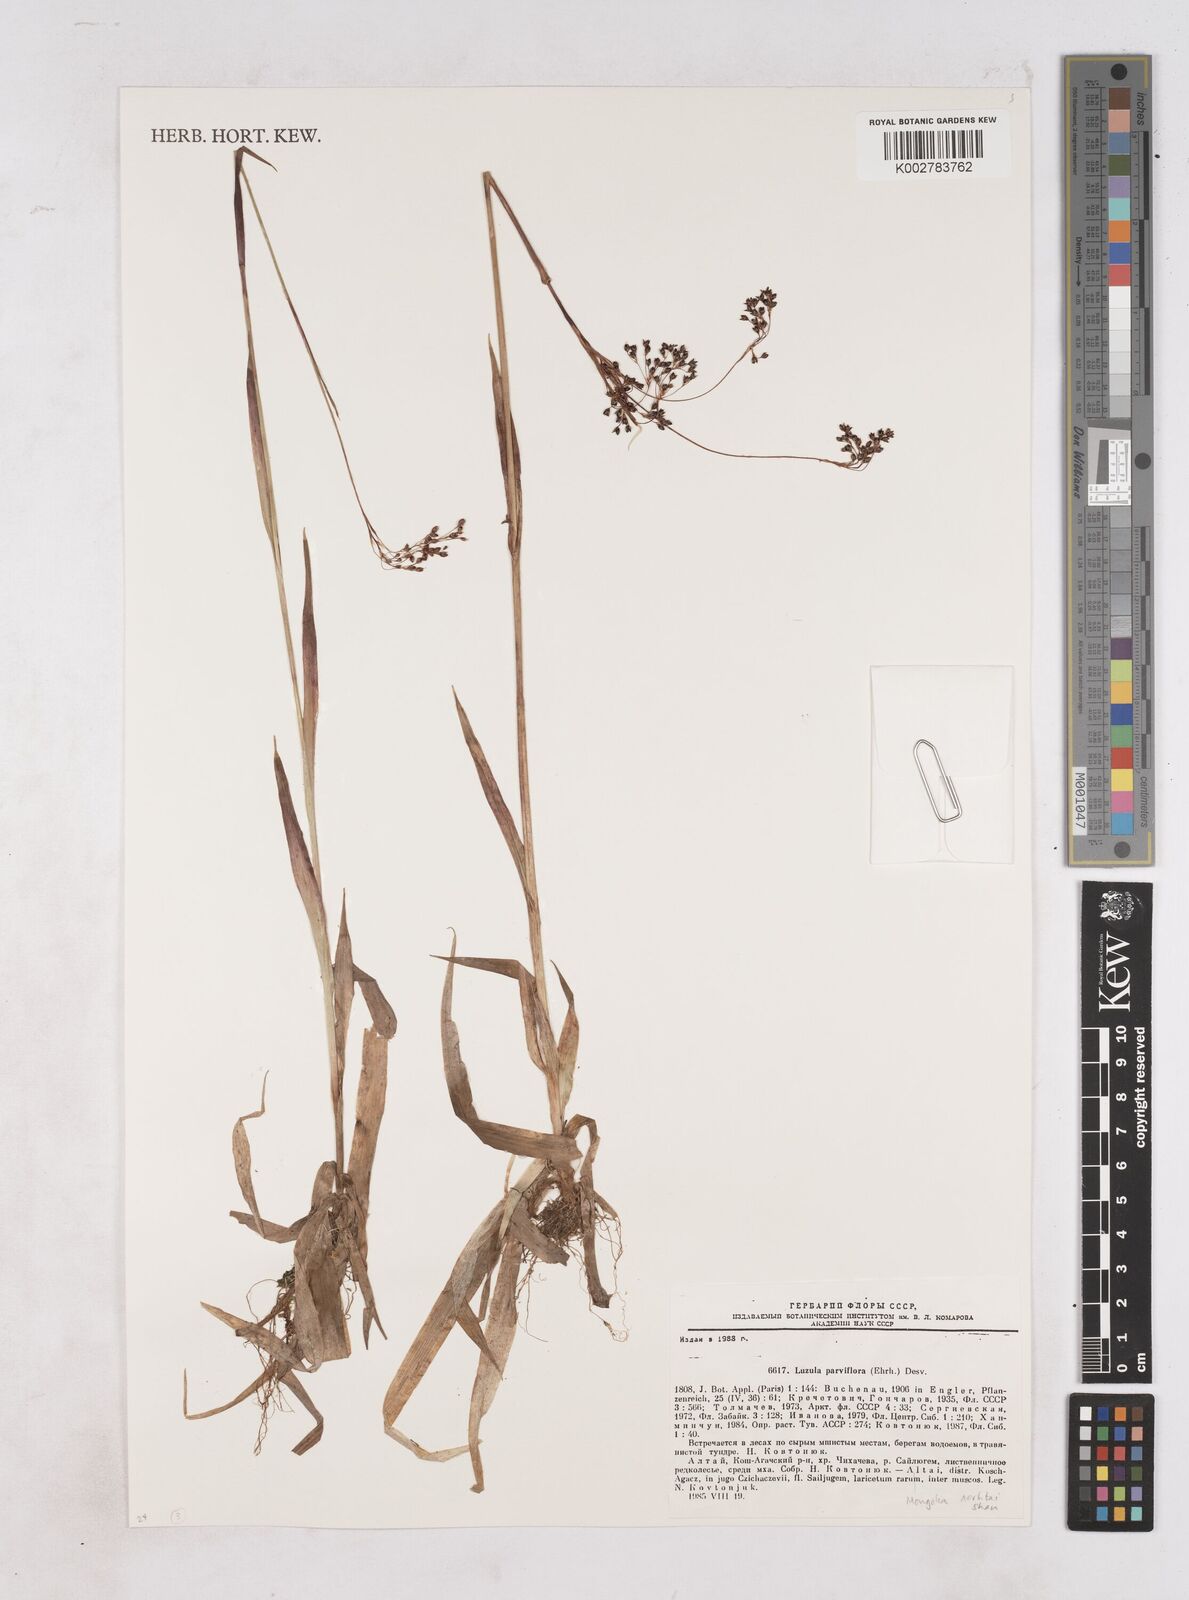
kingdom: Plantae
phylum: Tracheophyta
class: Liliopsida
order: Poales
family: Juncaceae
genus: Luzula
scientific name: Luzula parviflora
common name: Millet woodrush
